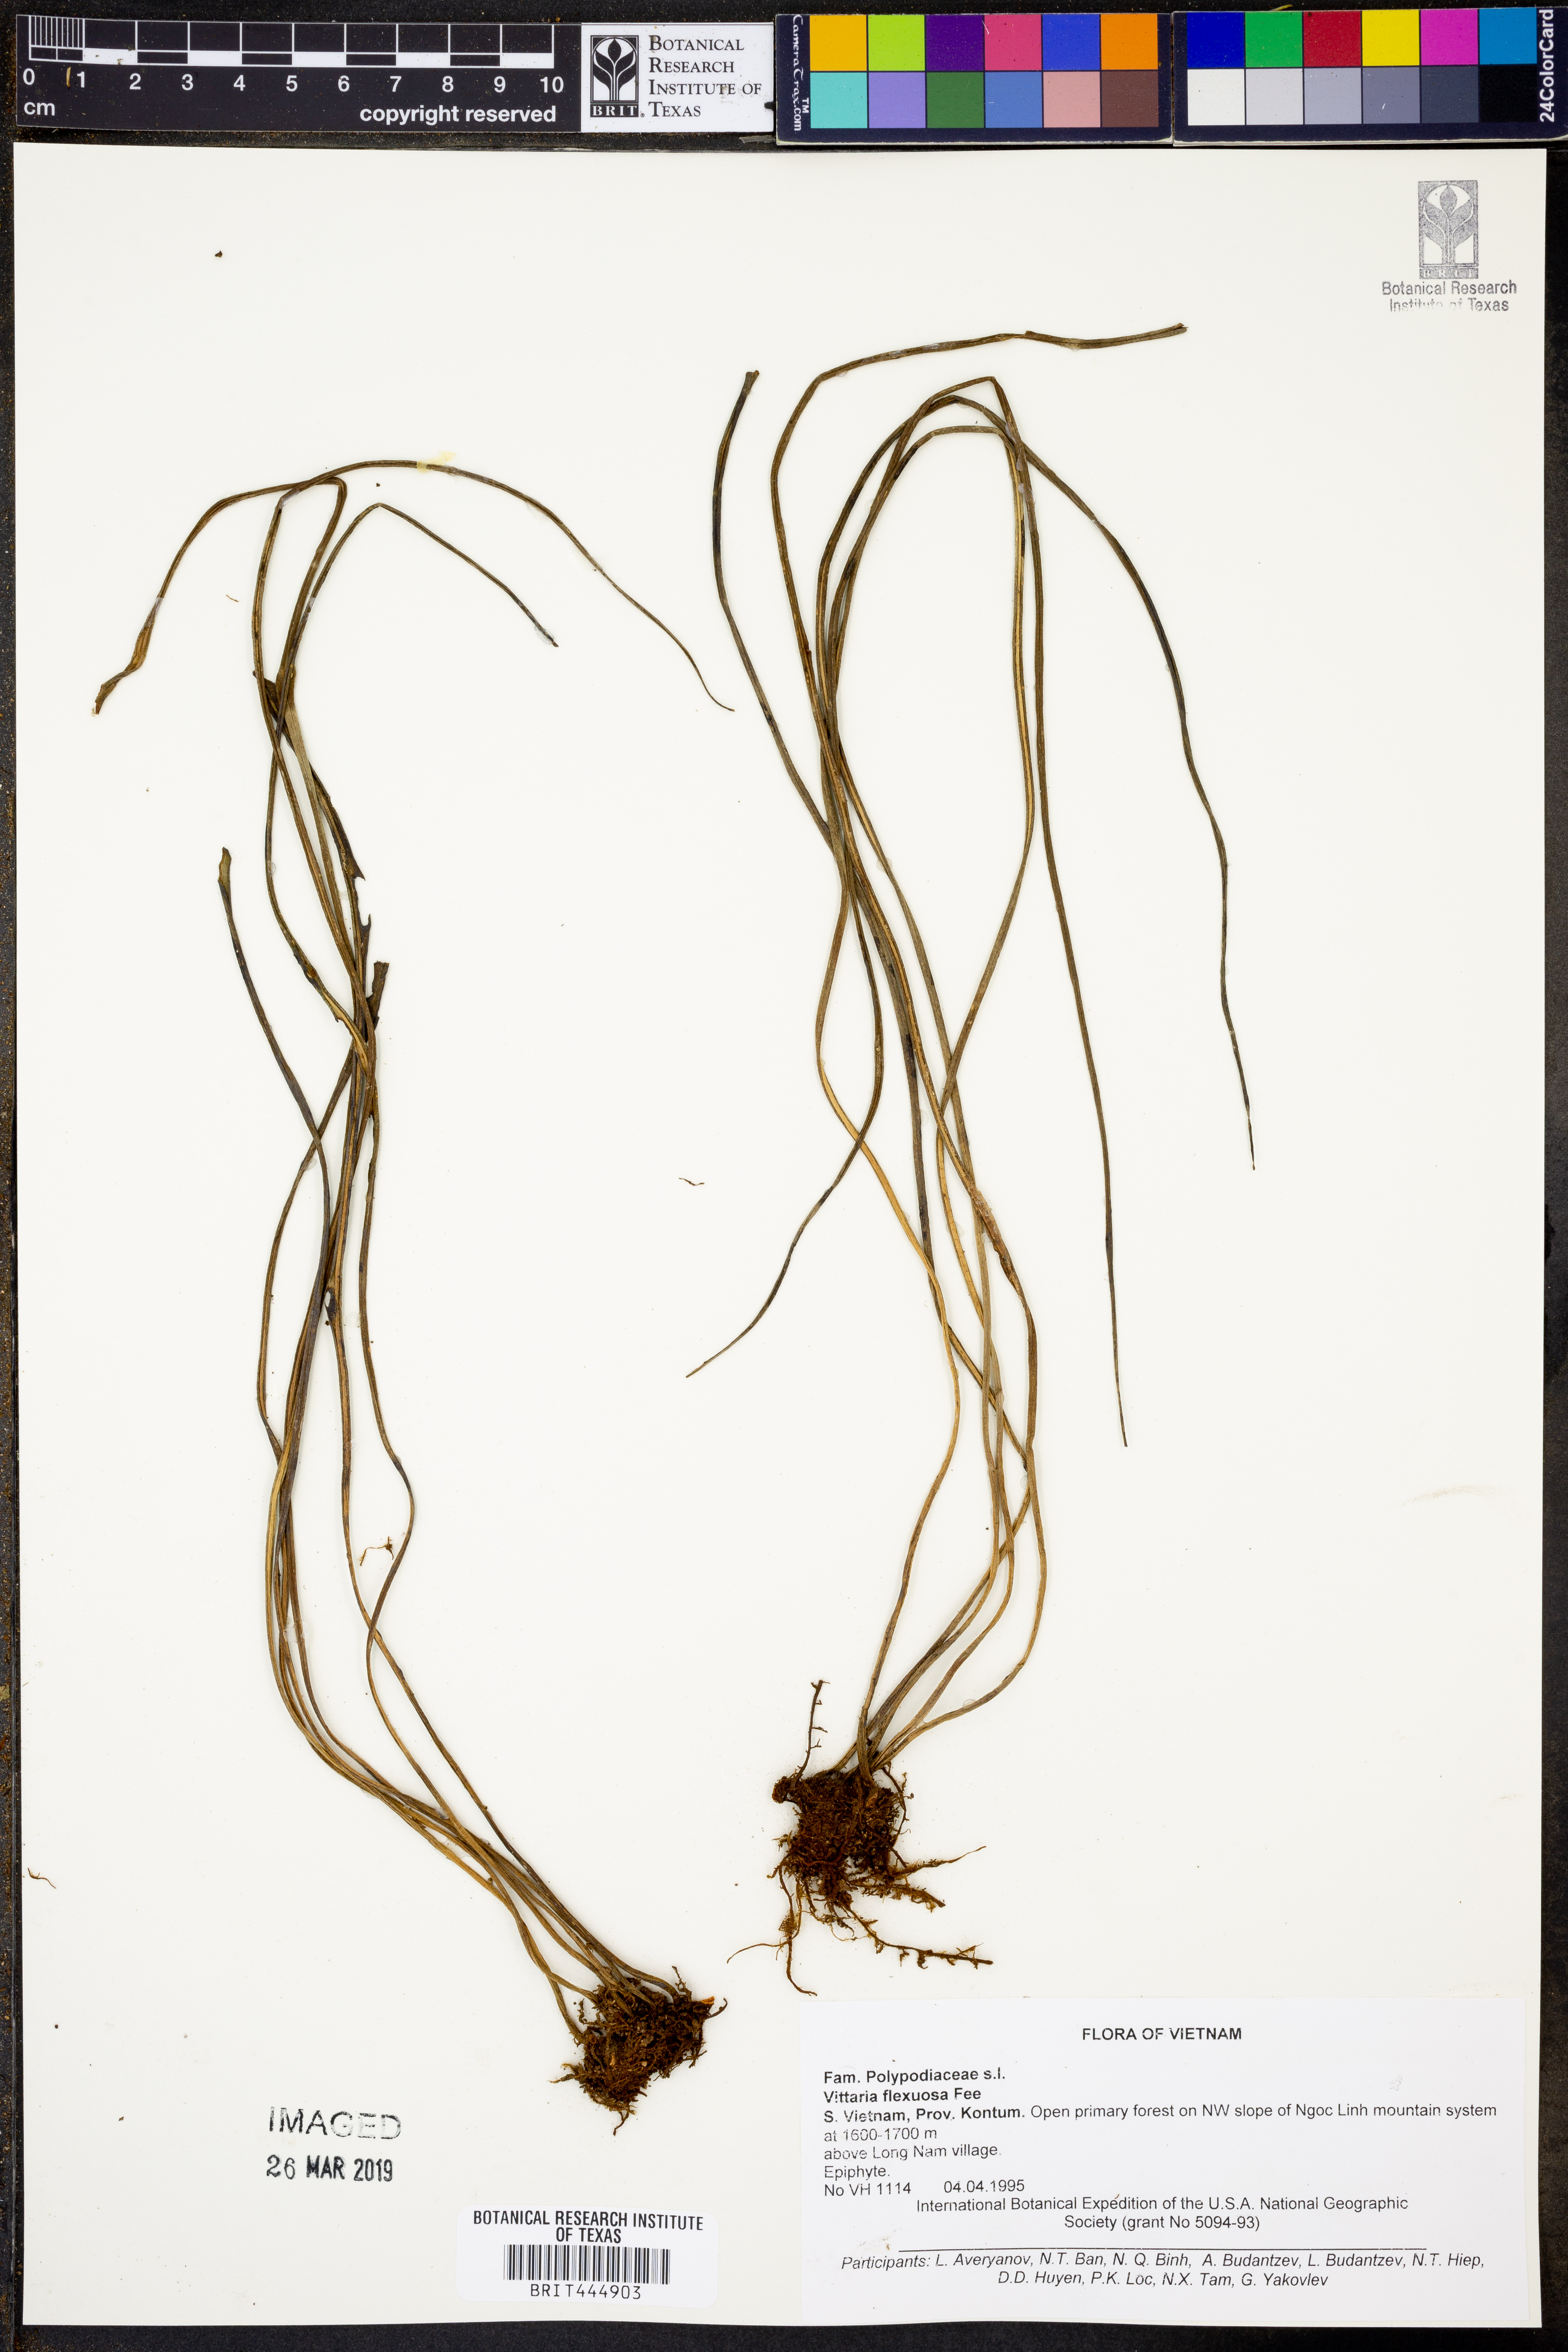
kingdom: Plantae
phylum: Tracheophyta
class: Polypodiopsida
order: Polypodiales
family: Pteridaceae
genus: Haplopteris
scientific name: Haplopteris flexuosa
